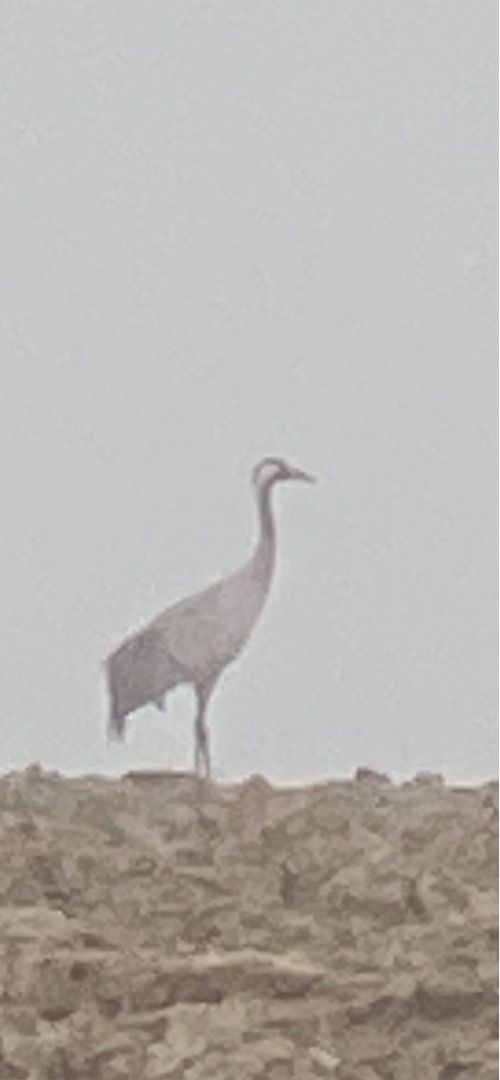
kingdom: Animalia
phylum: Chordata
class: Aves
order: Gruiformes
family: Gruidae
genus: Grus
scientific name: Grus grus
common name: Trane
